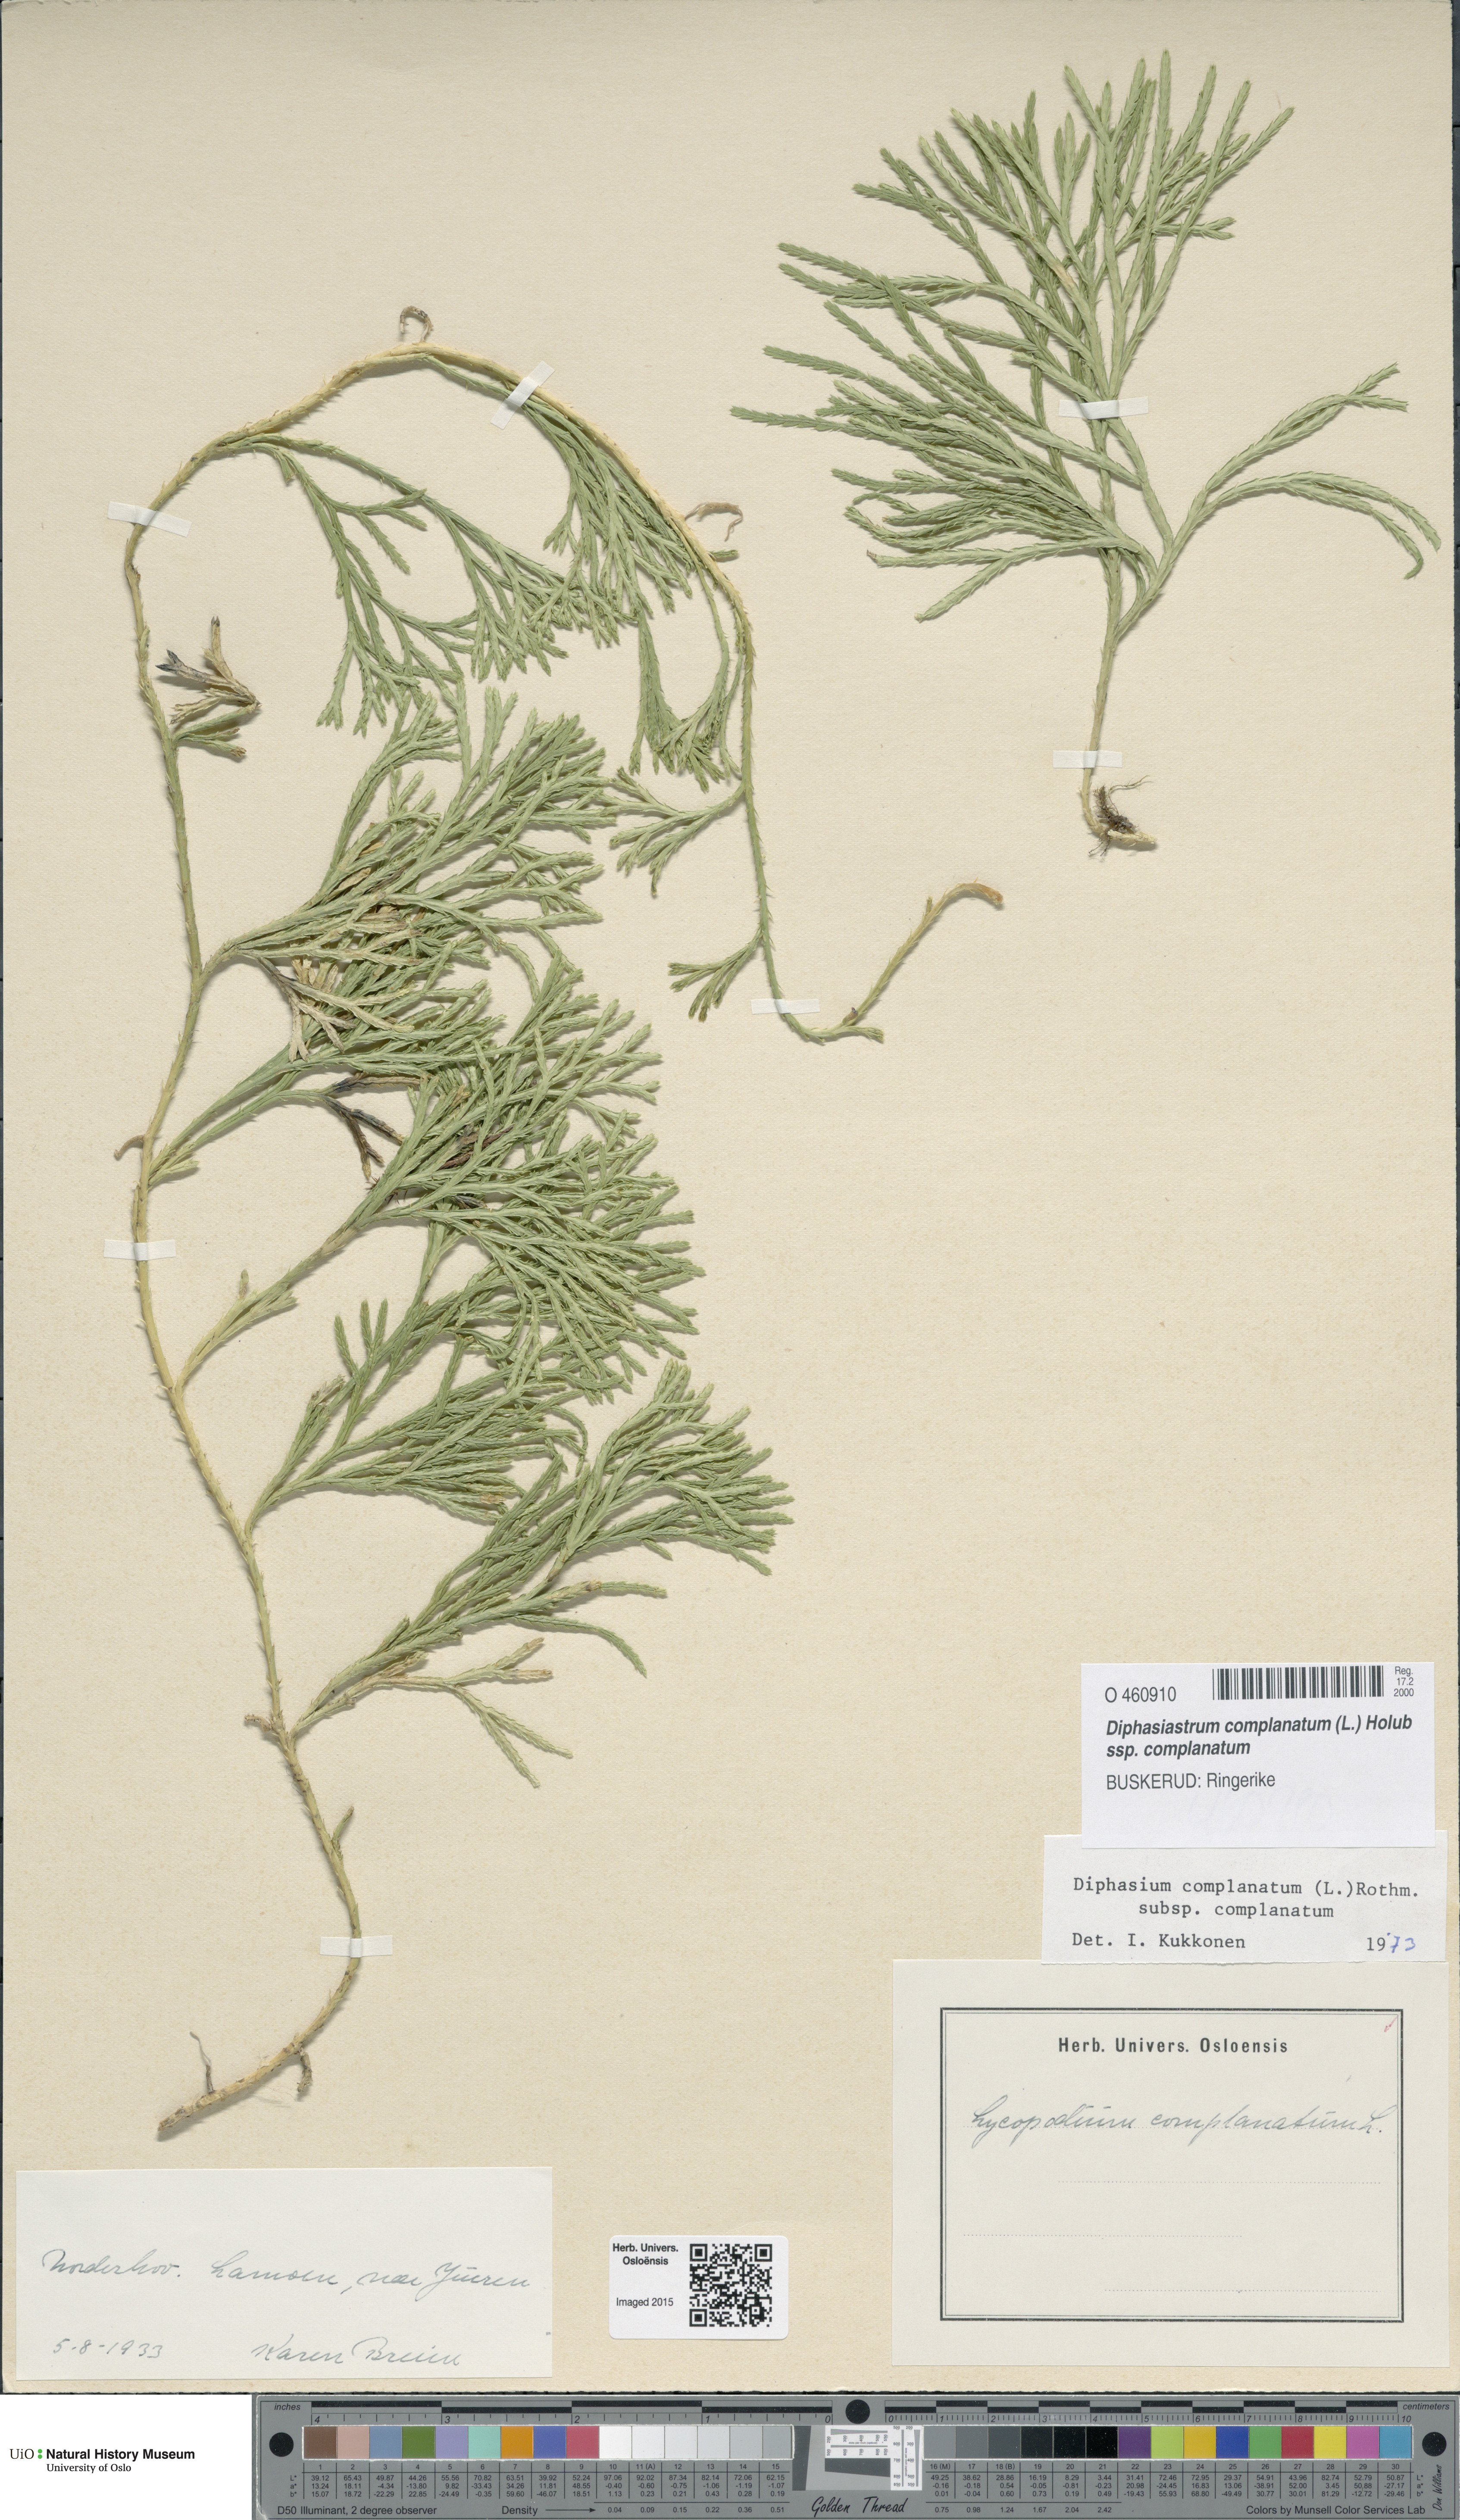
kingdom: Plantae
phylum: Tracheophyta
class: Lycopodiopsida
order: Lycopodiales
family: Lycopodiaceae
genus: Diphasiastrum
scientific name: Diphasiastrum complanatum
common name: Northern running-pine
